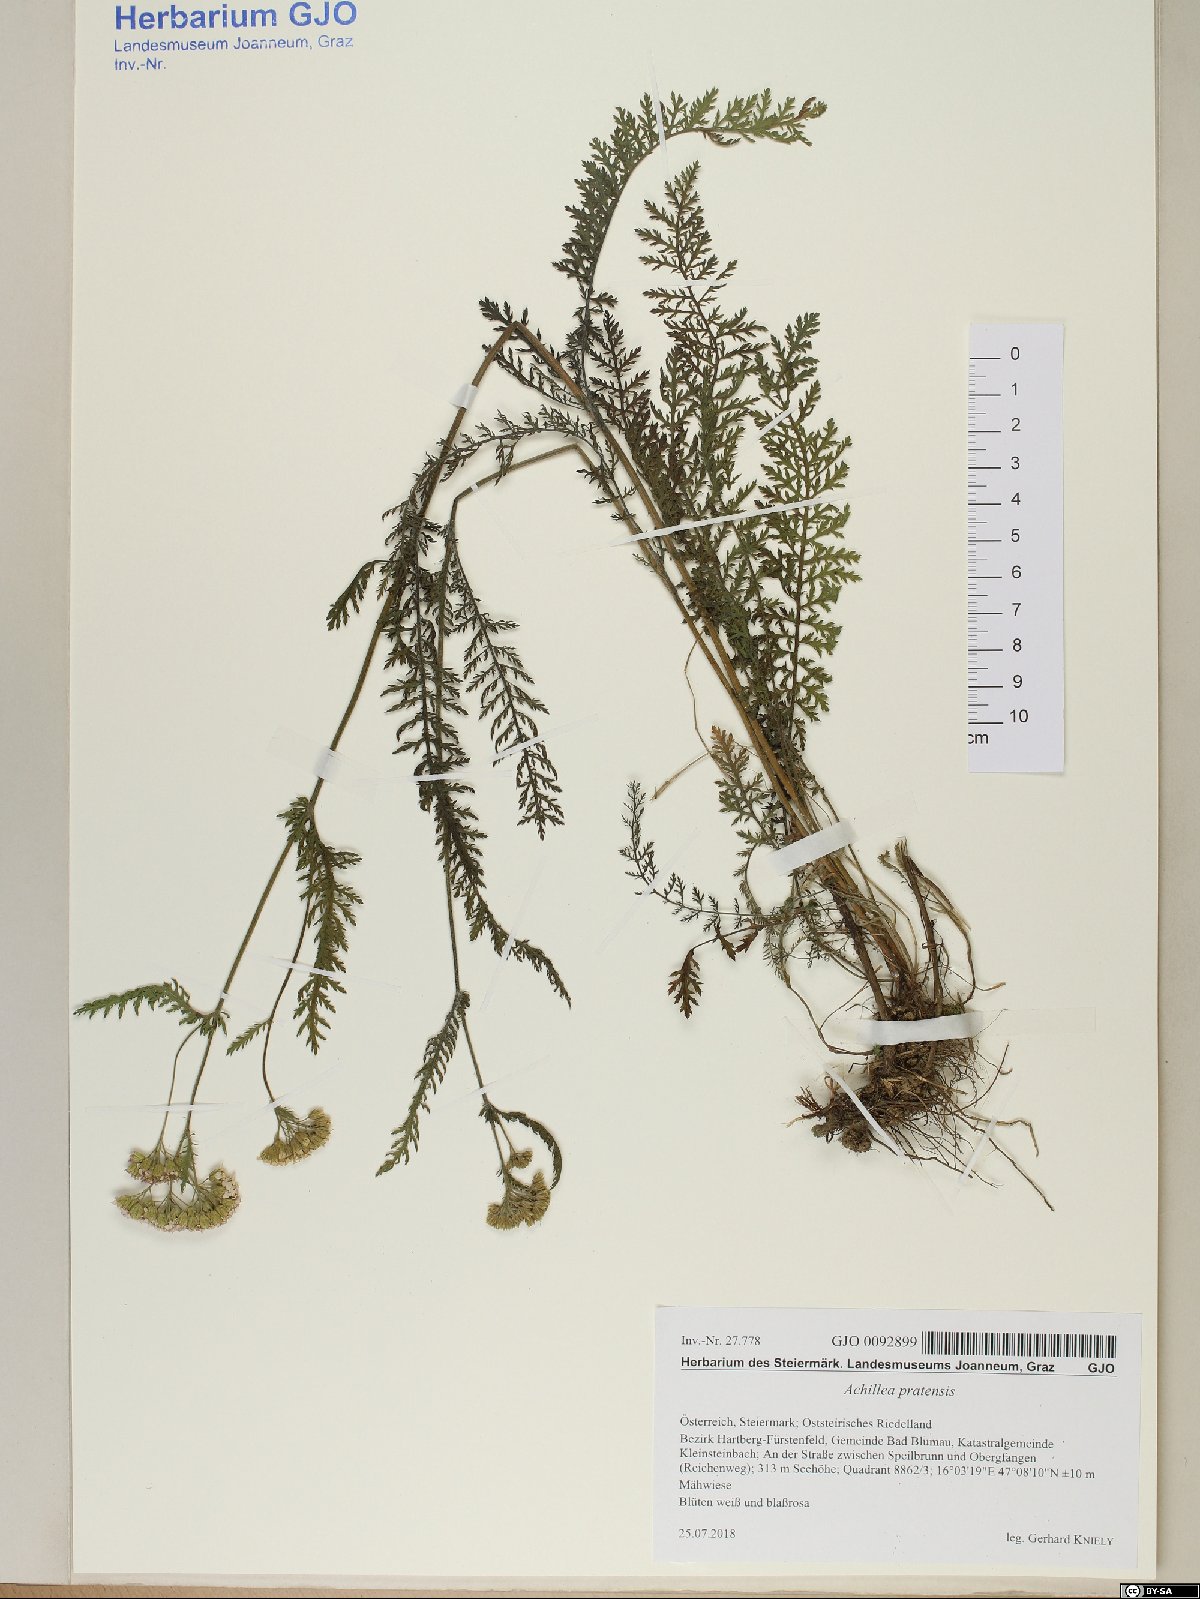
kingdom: Plantae
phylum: Tracheophyta
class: Magnoliopsida
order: Asterales
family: Asteraceae
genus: Achillea
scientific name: Achillea pratensis
